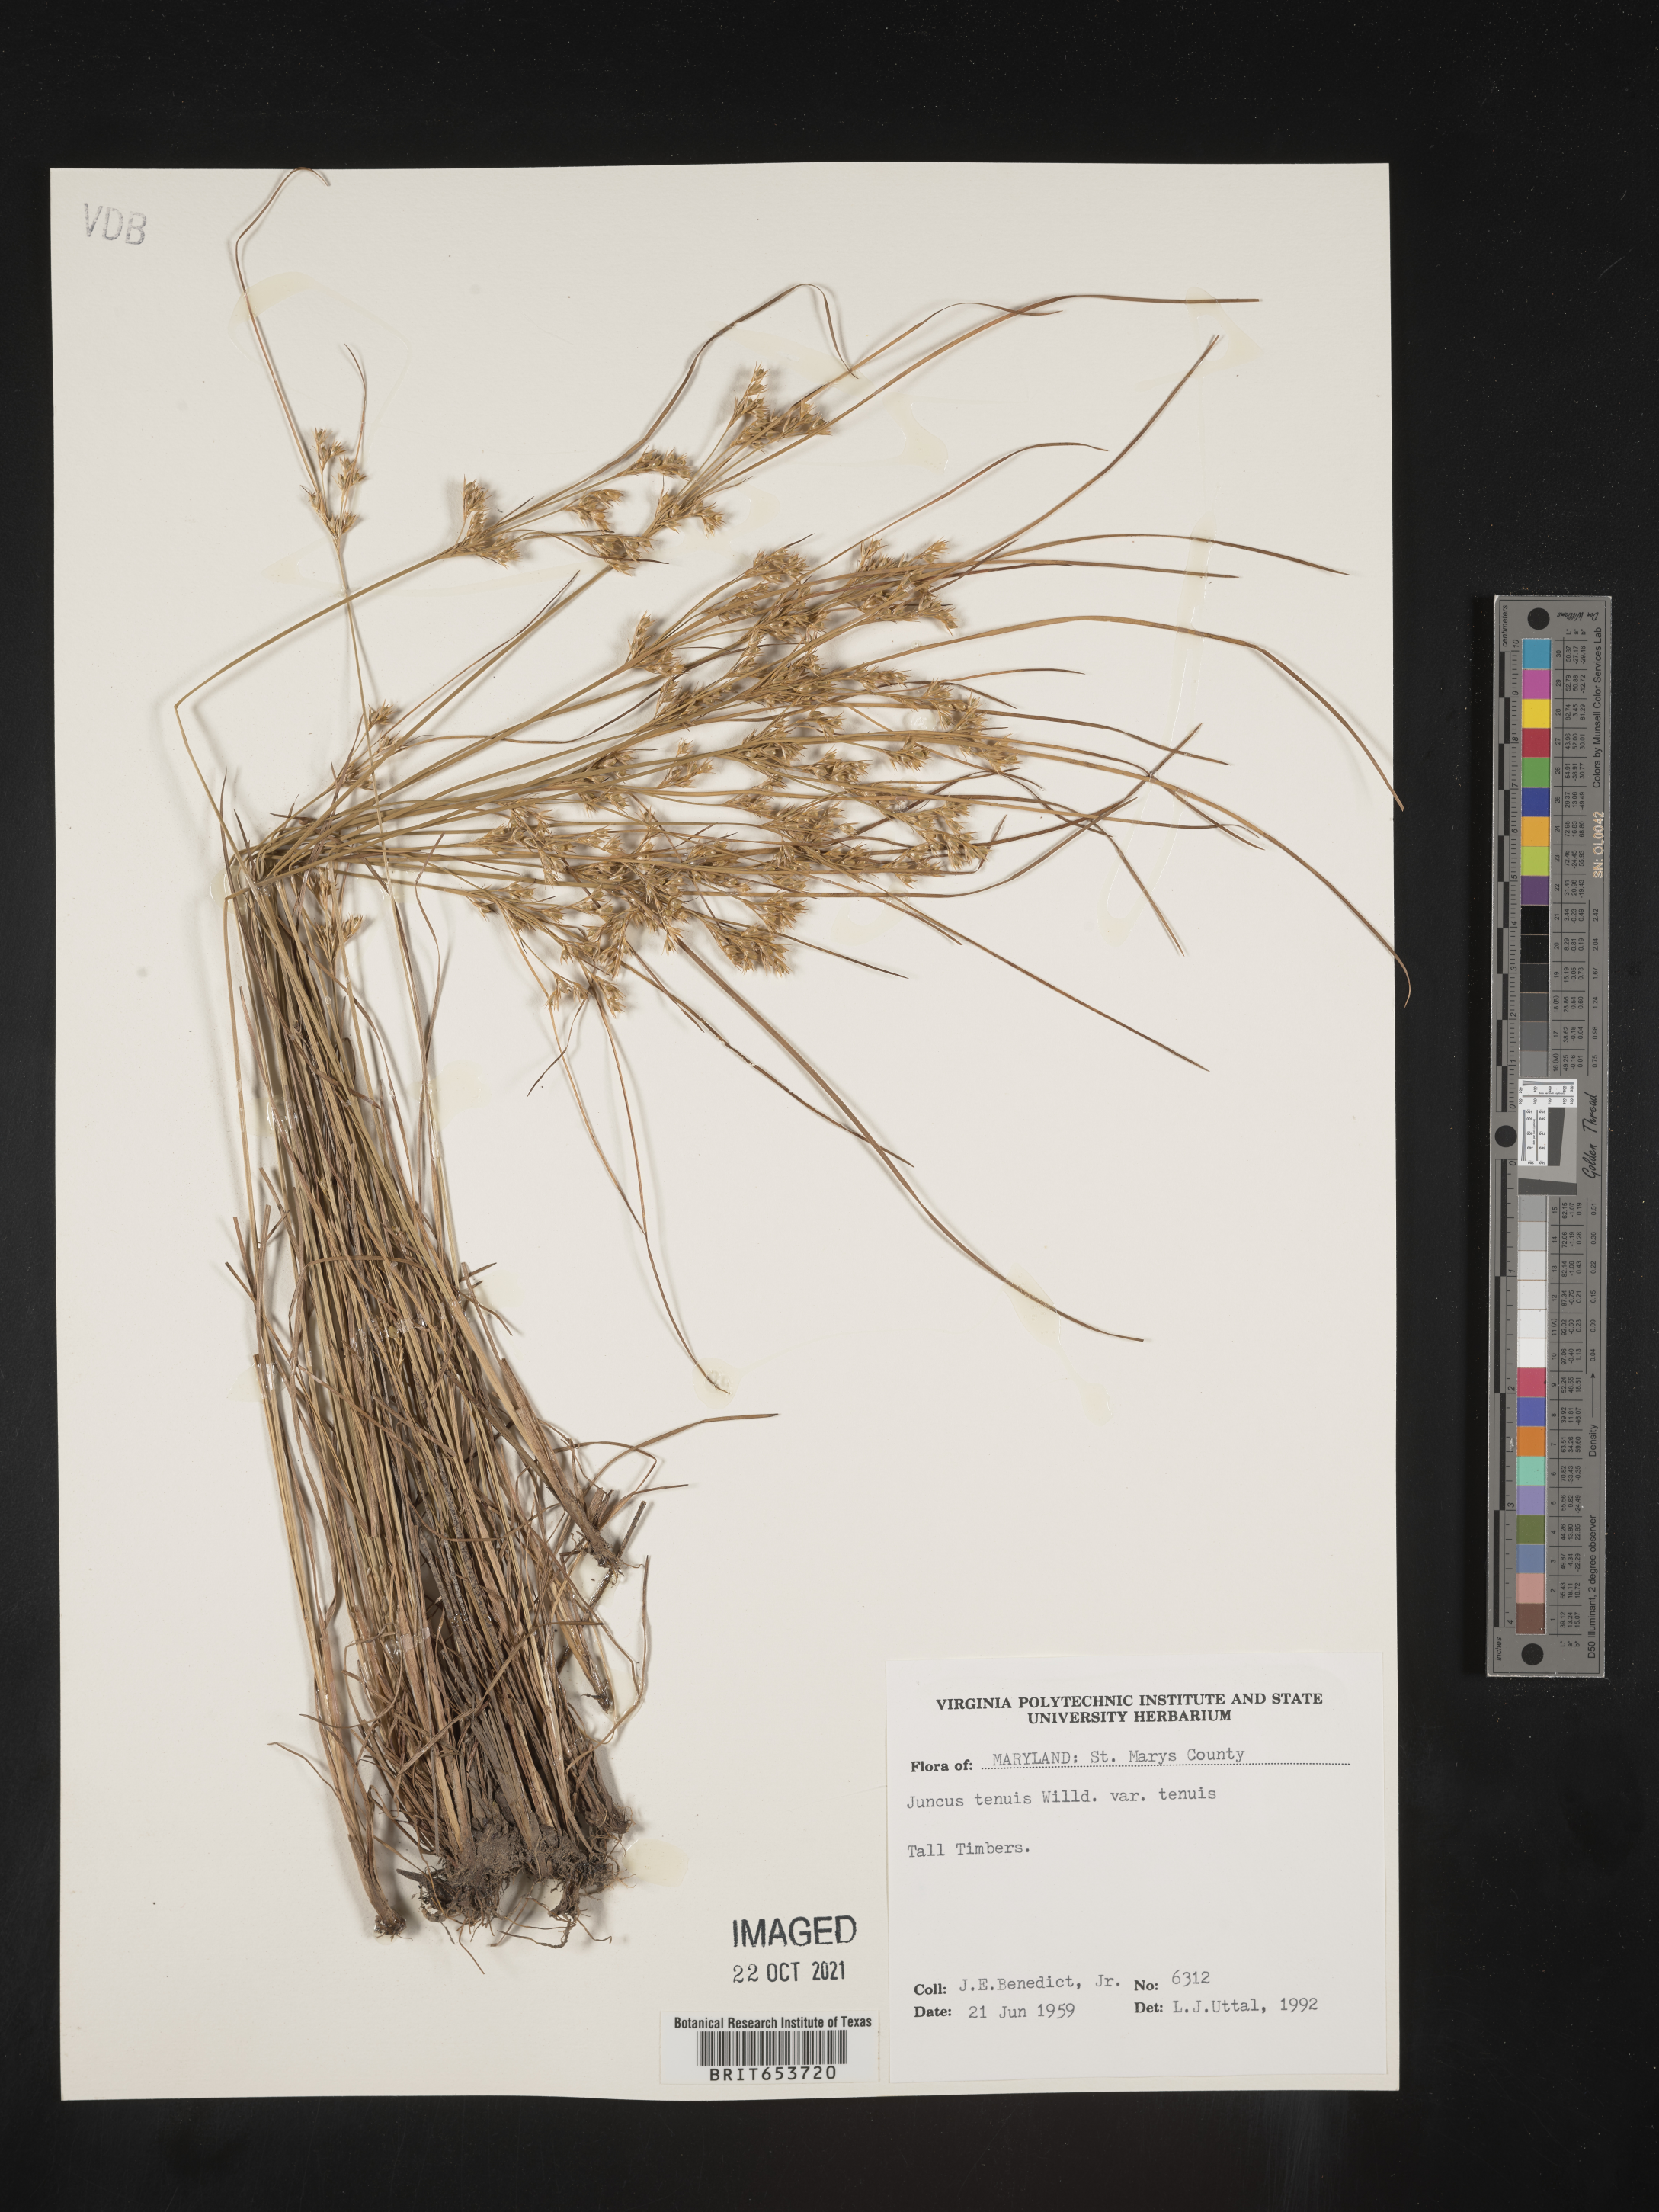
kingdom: Plantae
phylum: Tracheophyta
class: Liliopsida
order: Poales
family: Juncaceae
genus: Juncus
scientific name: Juncus tenuis
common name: Slender rush
